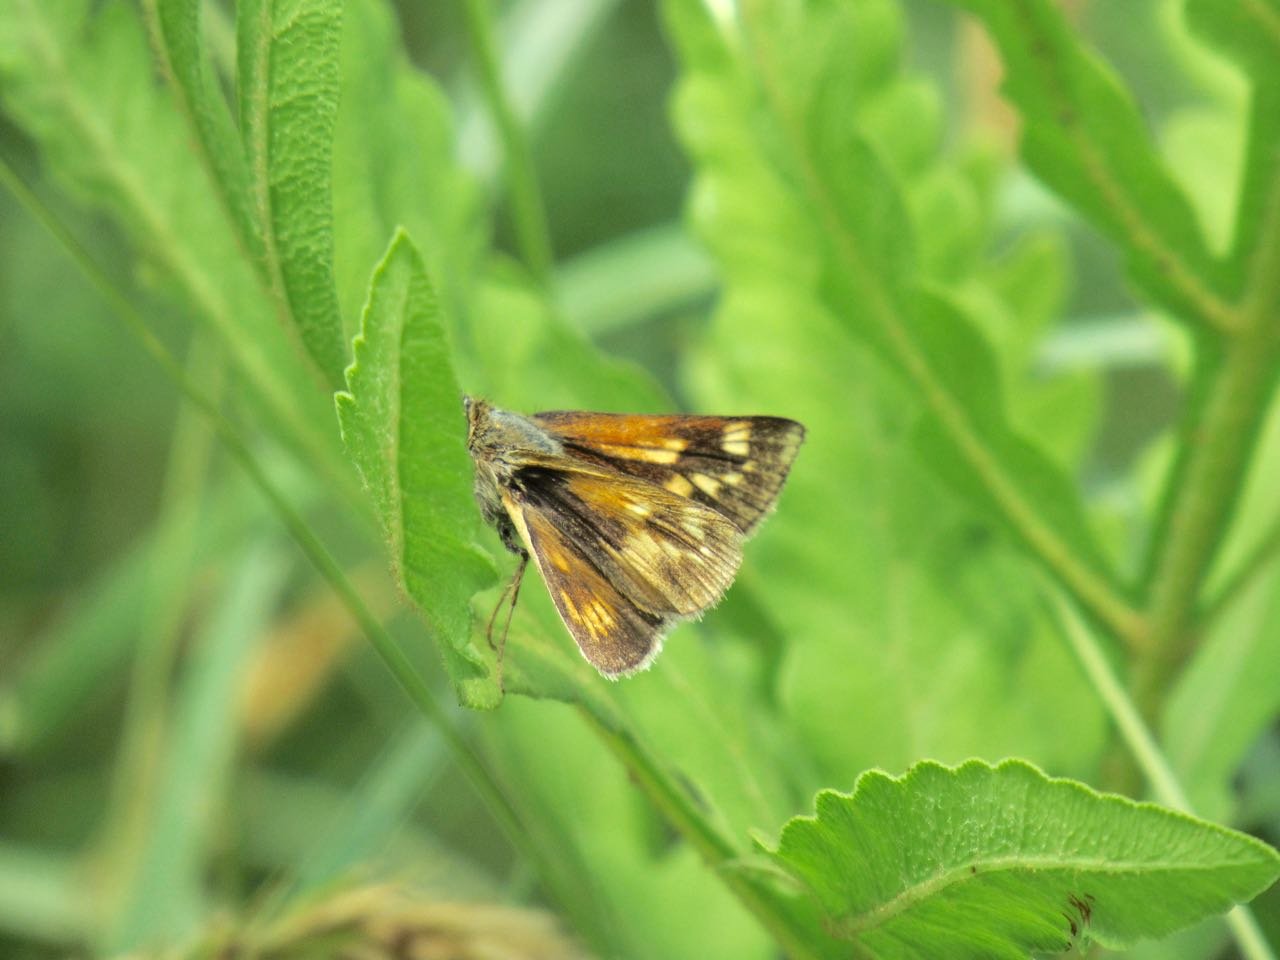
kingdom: Animalia
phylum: Arthropoda
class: Insecta
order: Lepidoptera
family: Hesperiidae
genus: Polites
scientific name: Polites
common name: Long Dash Skipper
